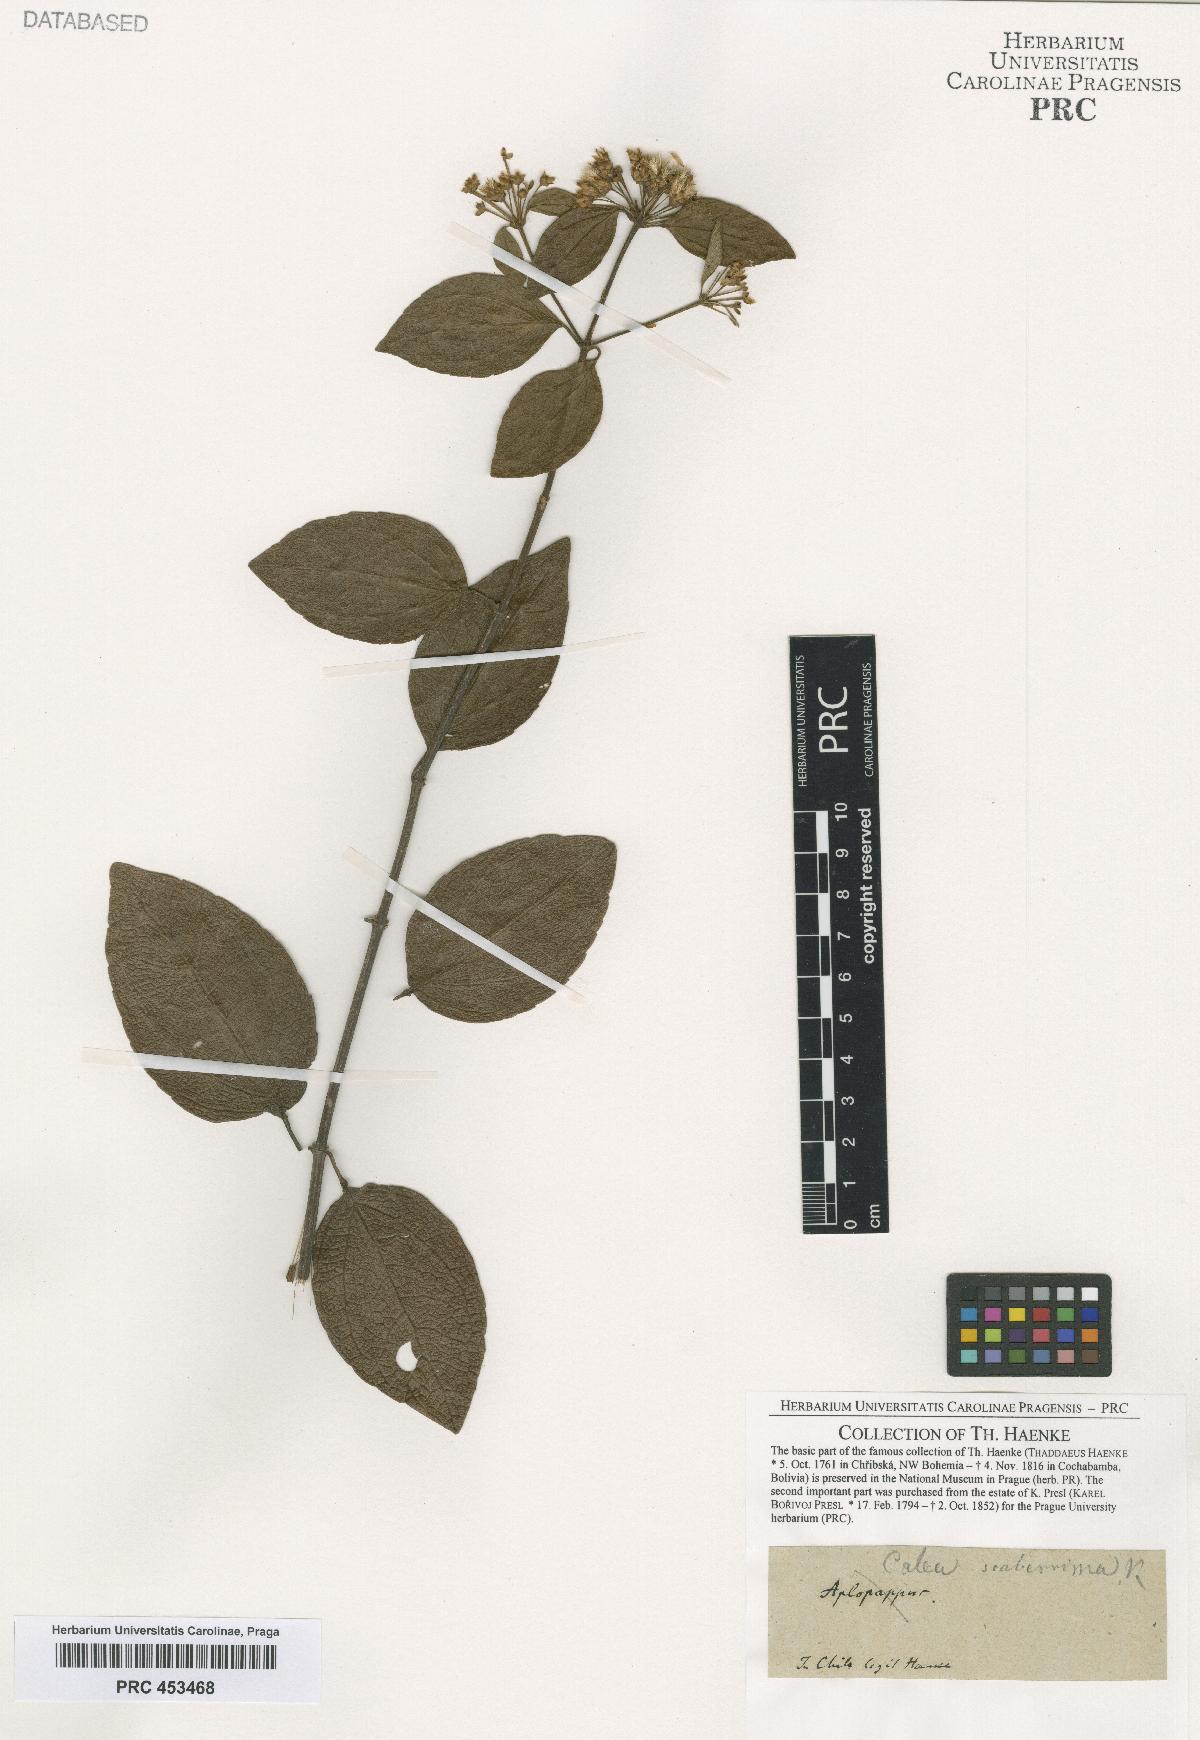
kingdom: Plantae
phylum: Tracheophyta
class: Magnoliopsida
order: Asterales
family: Asteraceae
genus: Calea
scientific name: Calea
